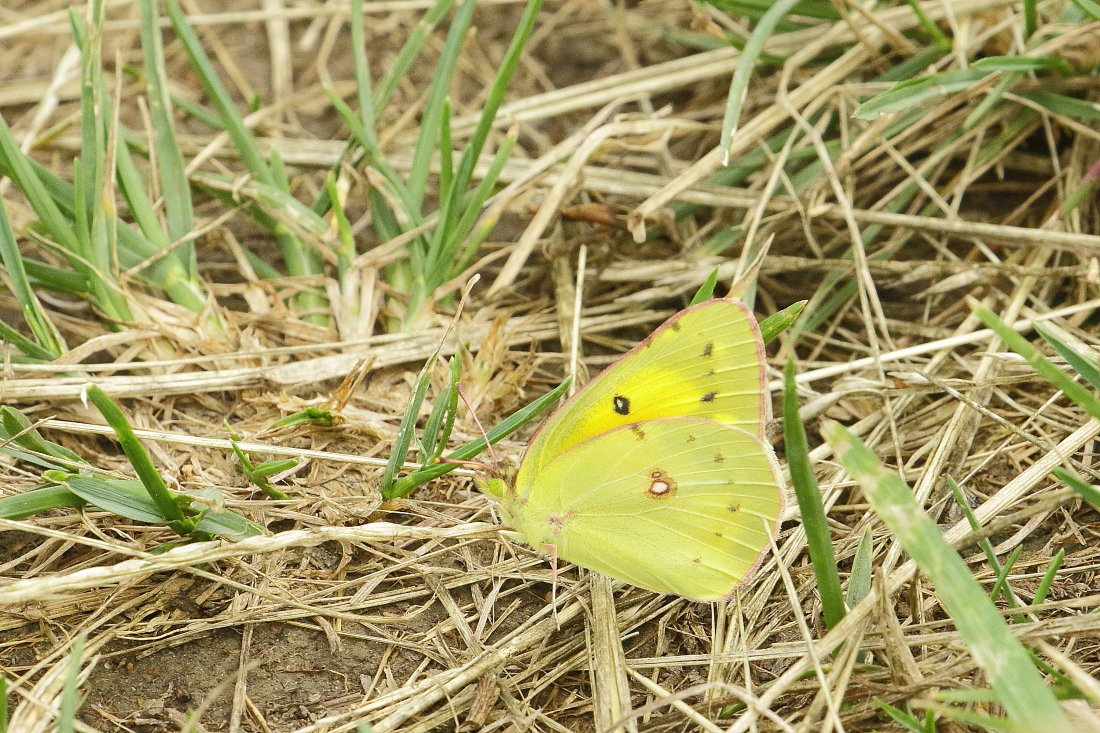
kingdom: Animalia
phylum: Arthropoda
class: Insecta
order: Lepidoptera
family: Pieridae
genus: Colias
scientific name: Colias eurytheme
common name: Orange Sulphur
